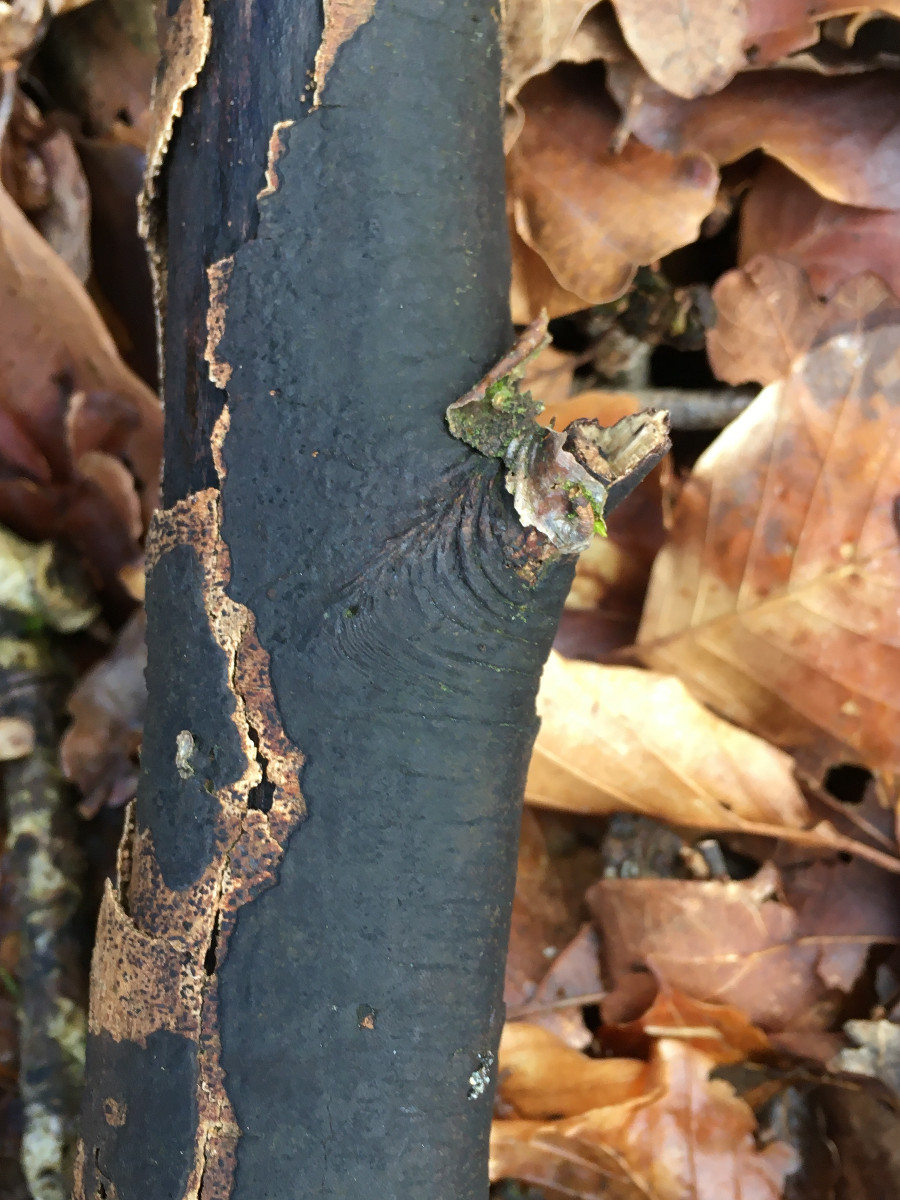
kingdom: Fungi
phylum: Ascomycota
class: Sordariomycetes
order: Xylariales
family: Diatrypaceae
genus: Diatrype
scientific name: Diatrype
